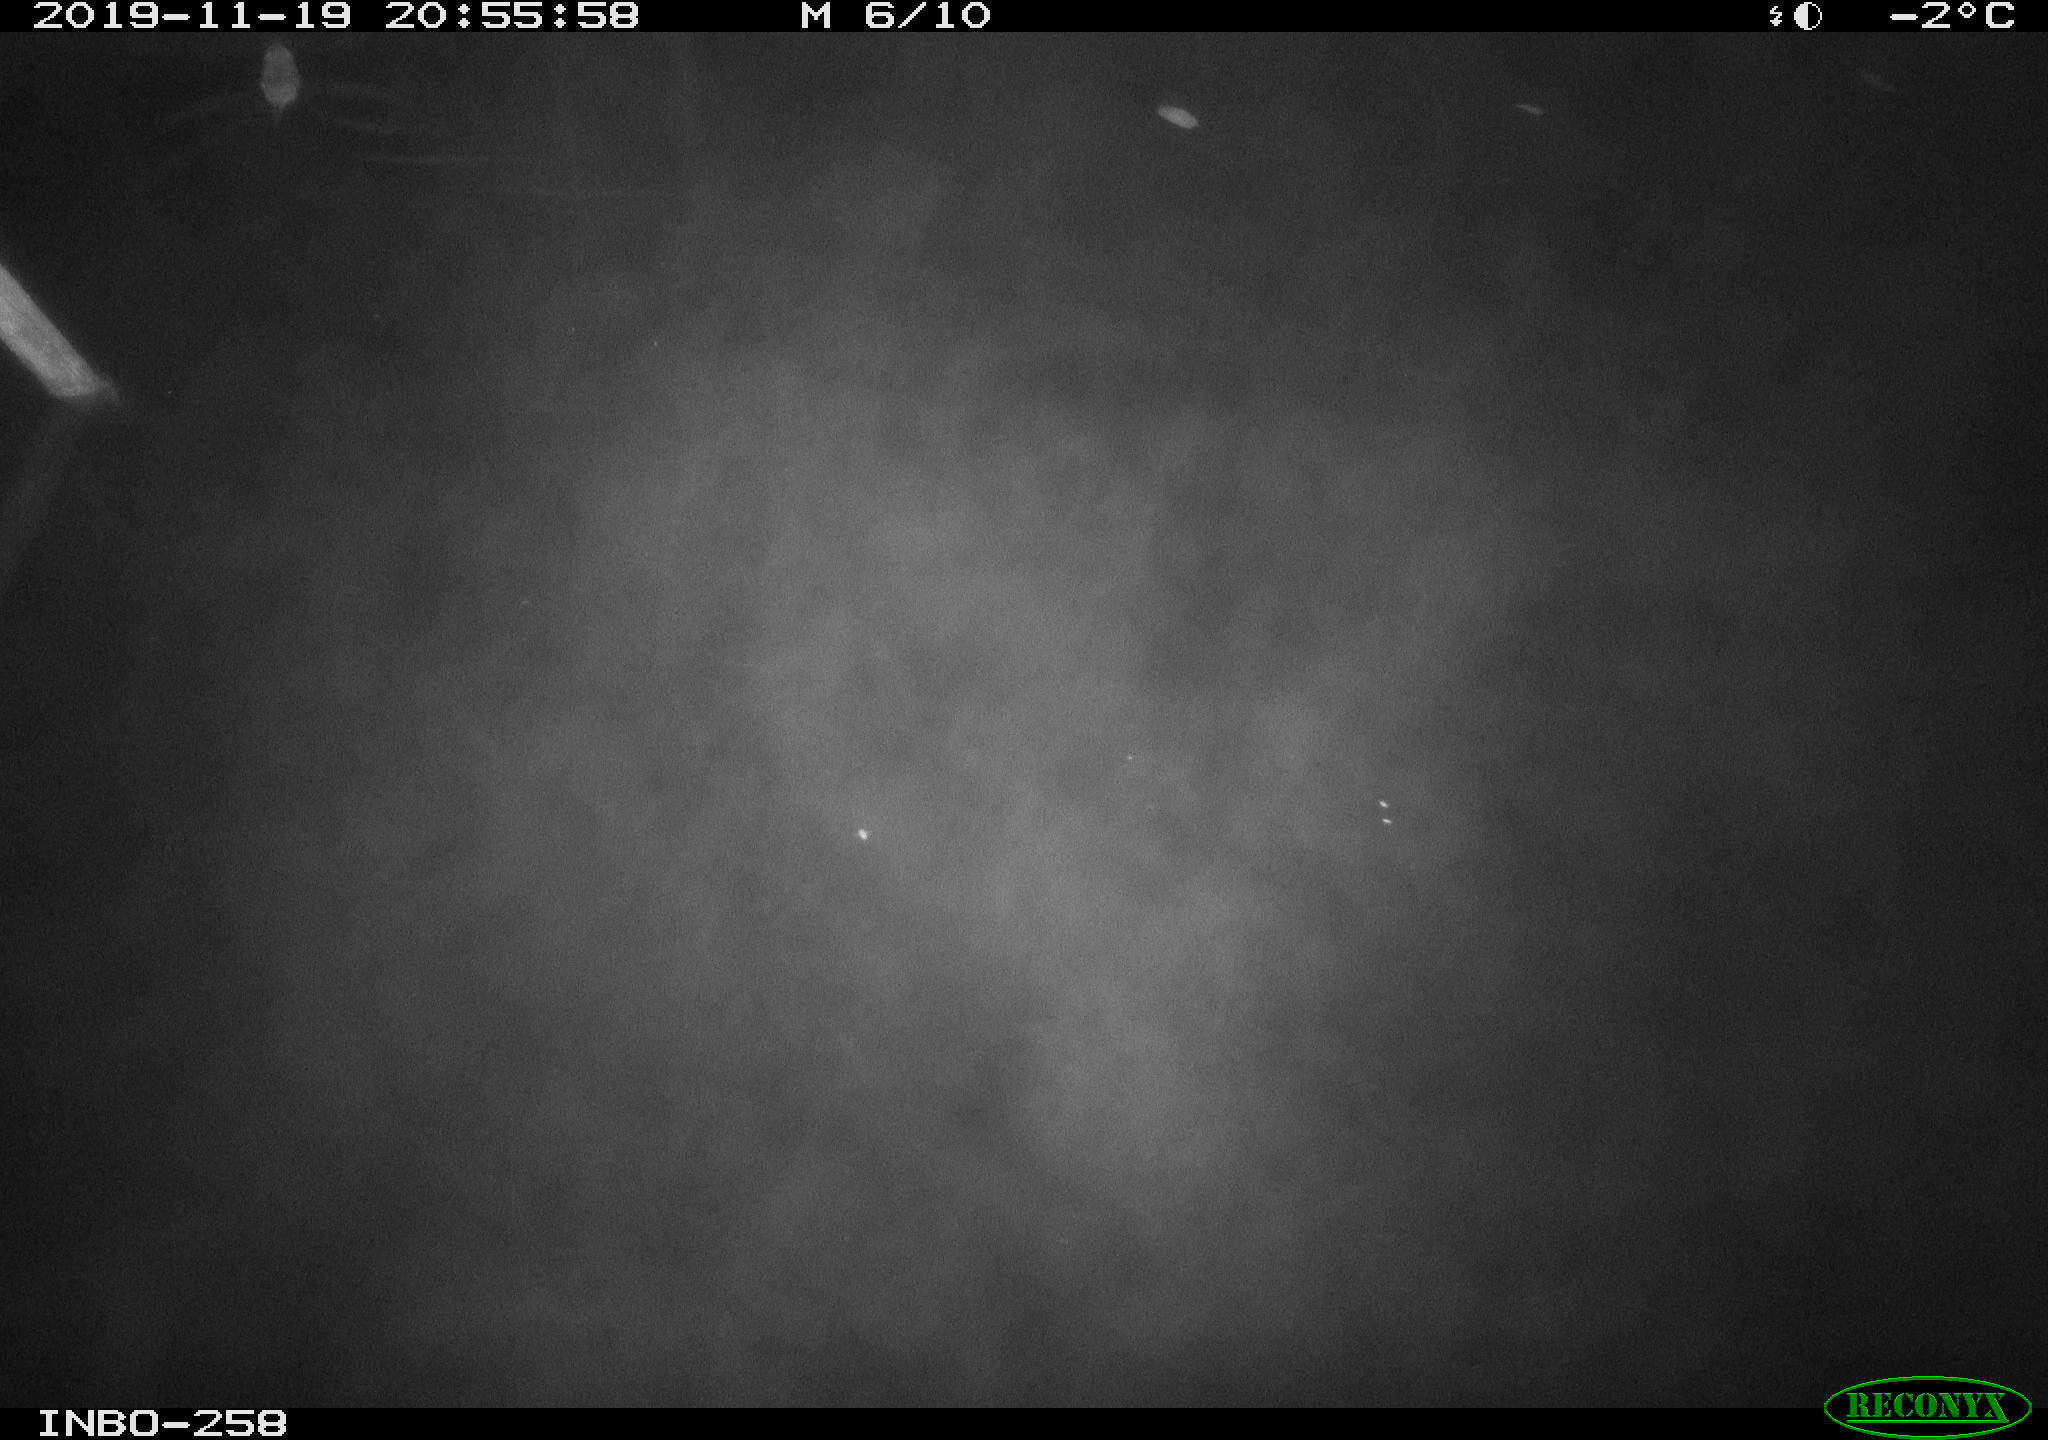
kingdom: Animalia
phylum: Chordata
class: Mammalia
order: Rodentia
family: Muridae
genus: Rattus
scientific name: Rattus norvegicus
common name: Brown rat
